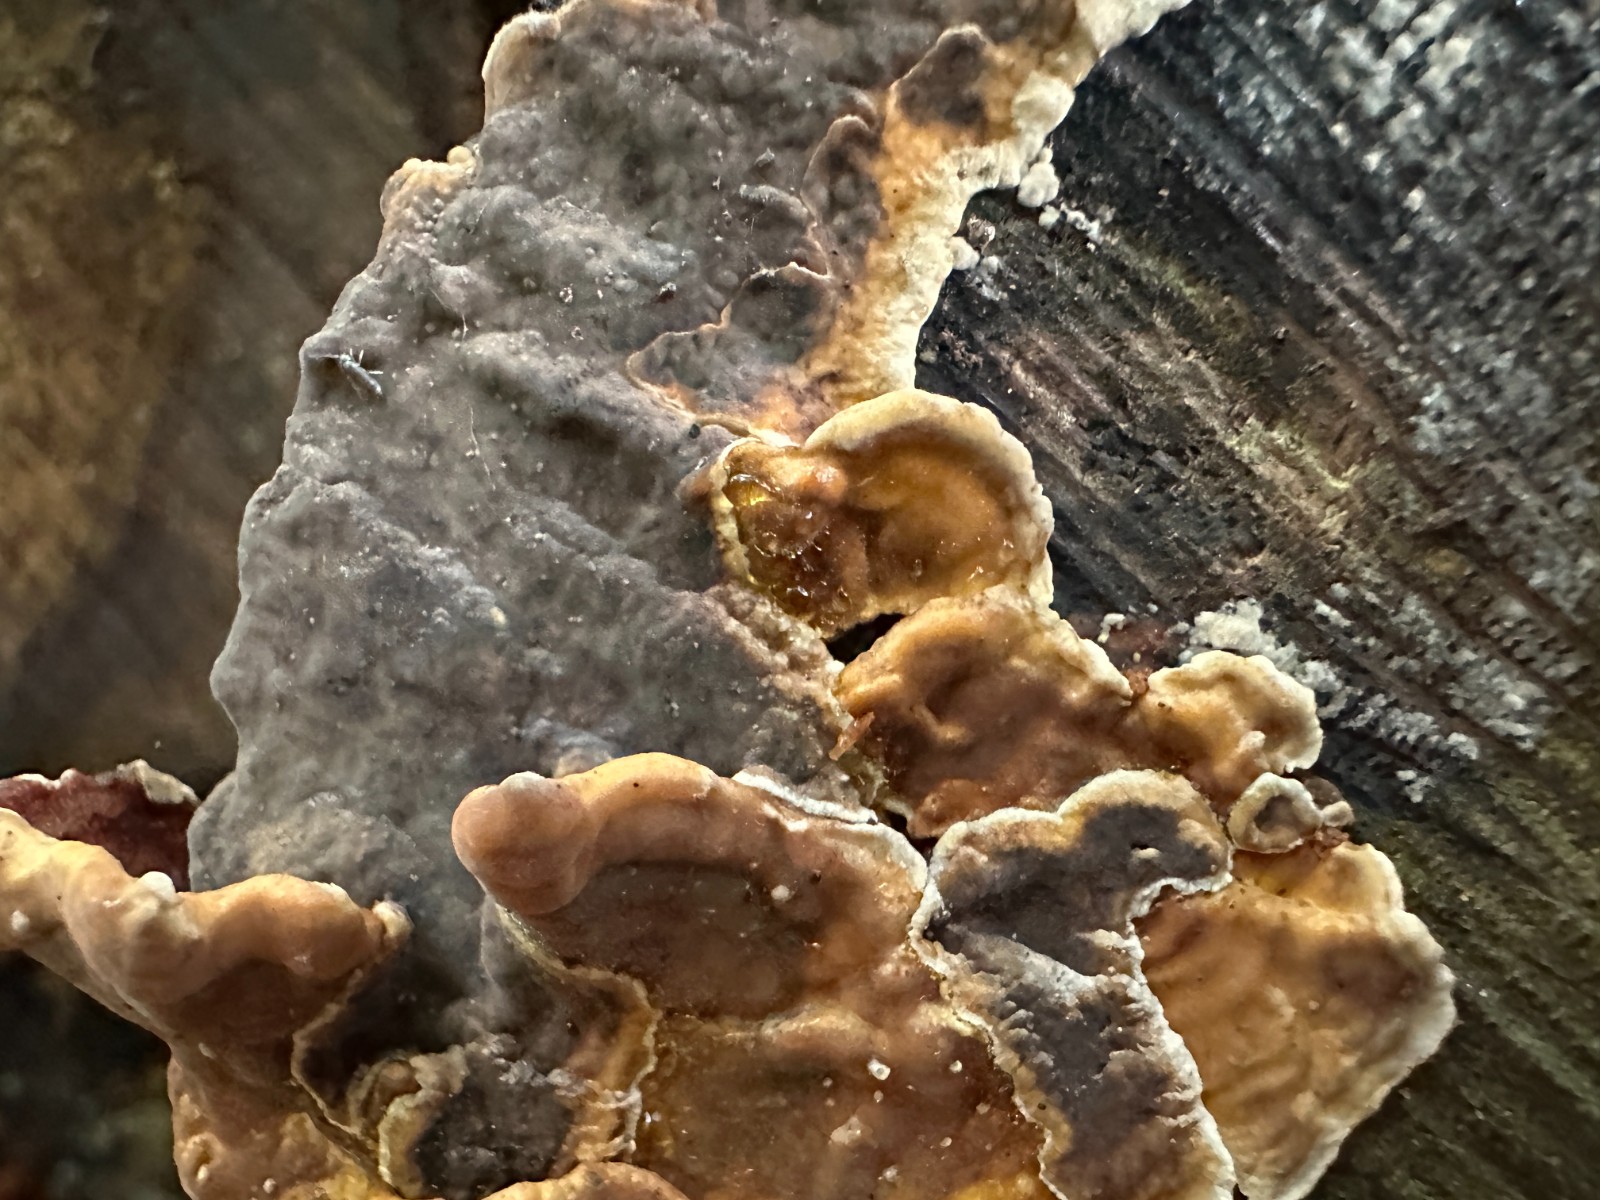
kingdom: Fungi
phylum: Basidiomycota
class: Agaricomycetes
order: Russulales
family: Stereaceae
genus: Stereum
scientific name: Stereum sanguinolentum
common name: blødende lædersvamp
